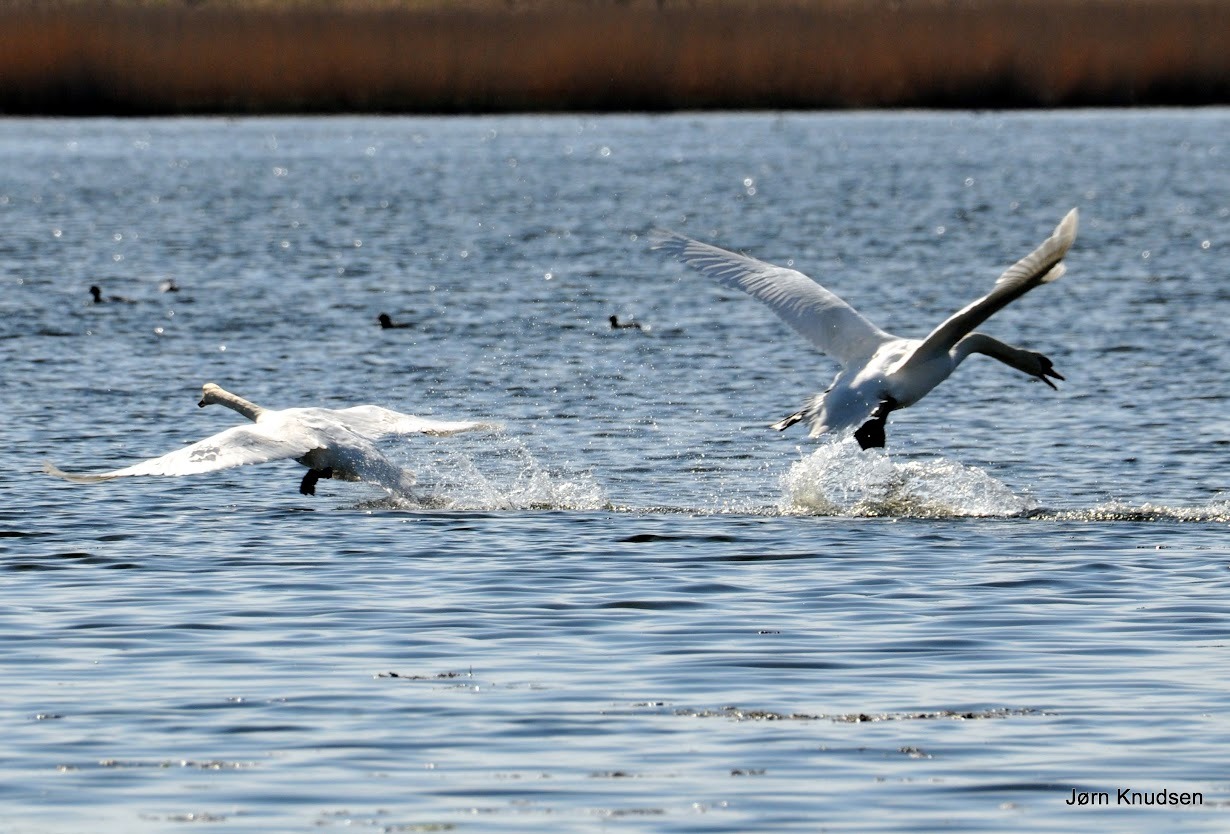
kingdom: Animalia
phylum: Chordata
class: Aves
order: Anseriformes
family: Anatidae
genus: Cygnus
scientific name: Cygnus olor
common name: Knopsvane
